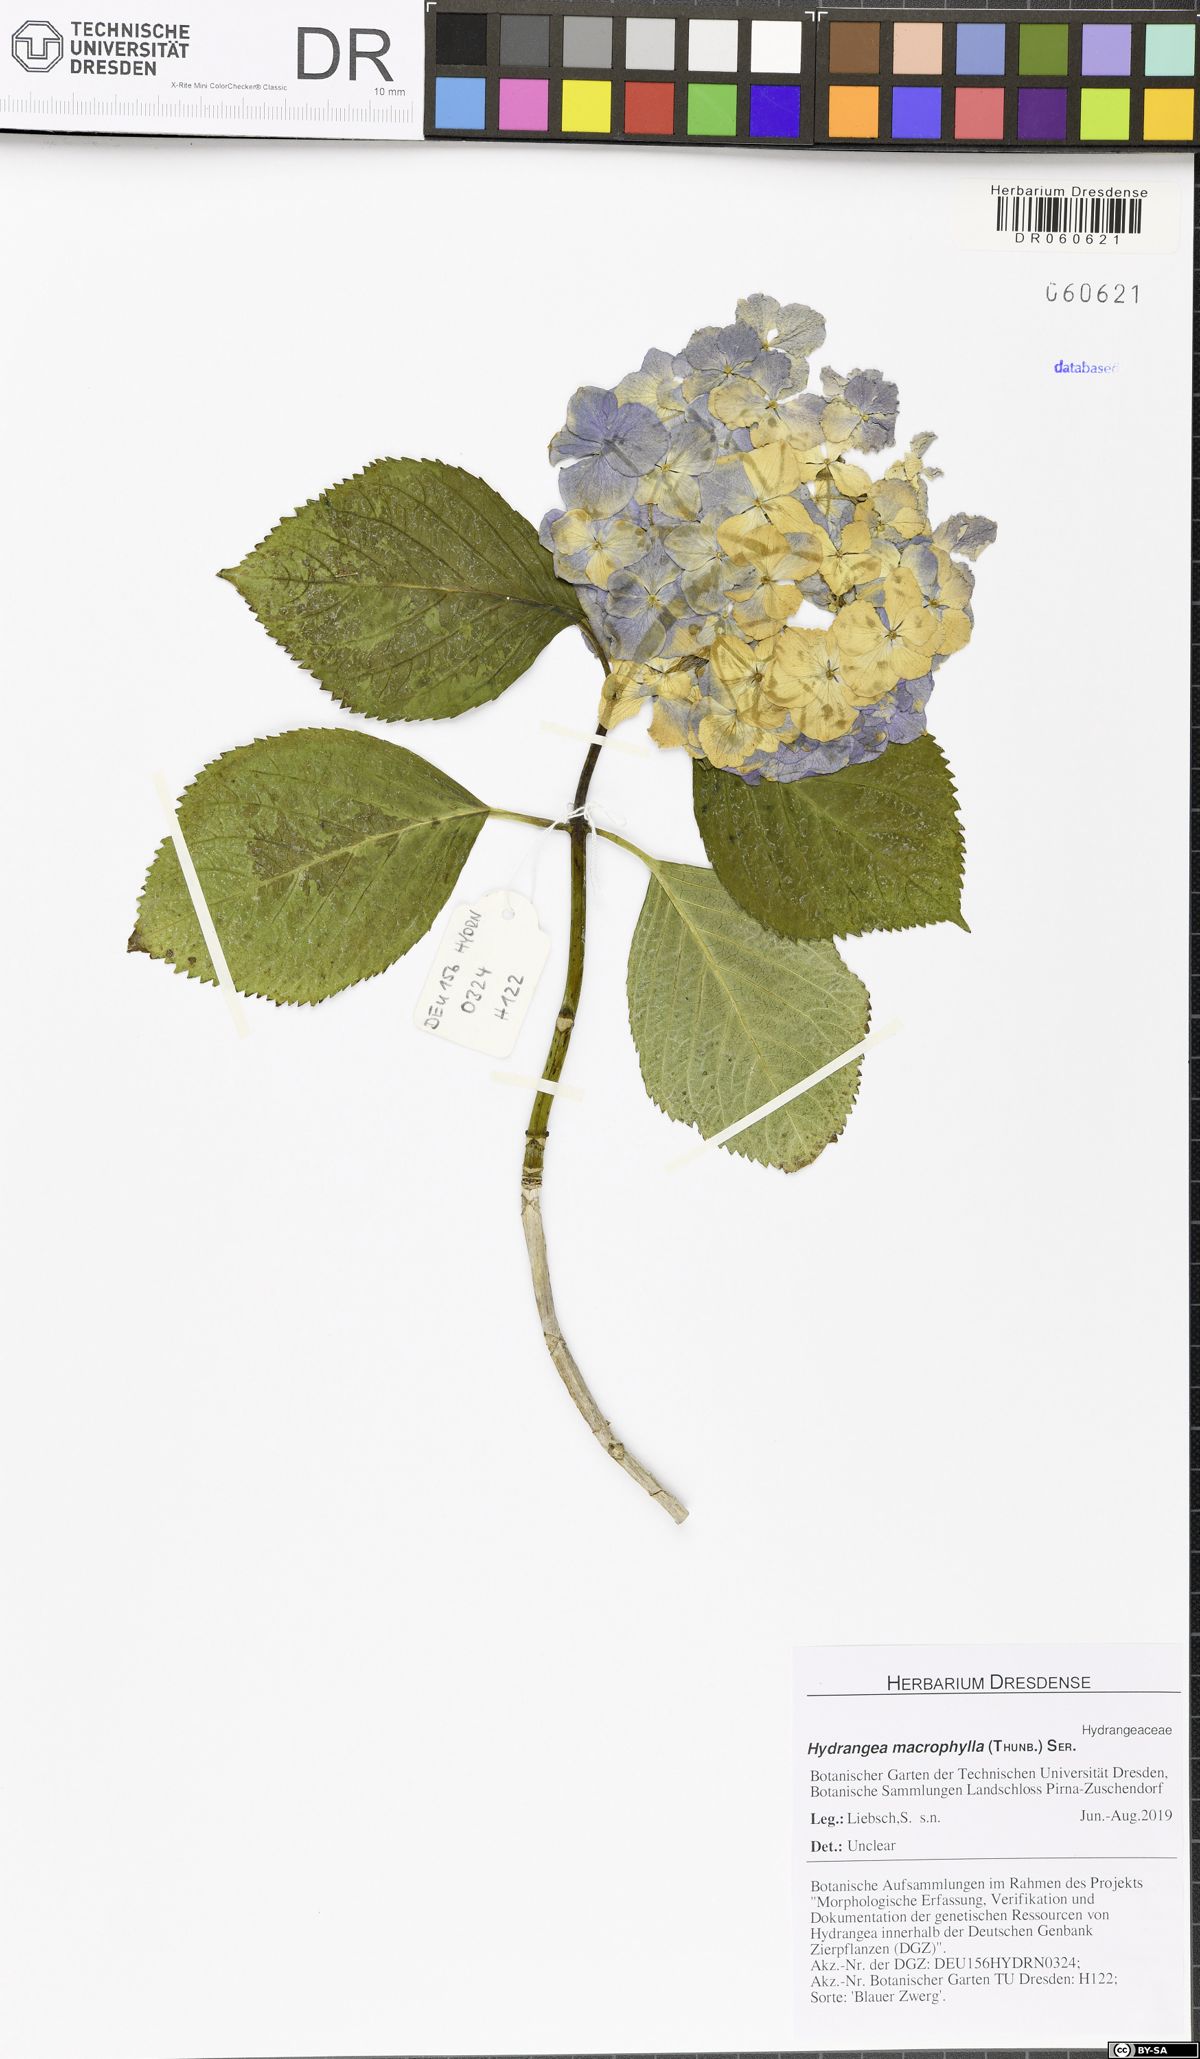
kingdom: Plantae
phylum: Tracheophyta
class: Magnoliopsida
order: Cornales
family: Hydrangeaceae
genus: Hydrangea
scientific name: Hydrangea macrophylla
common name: Hydrangea
